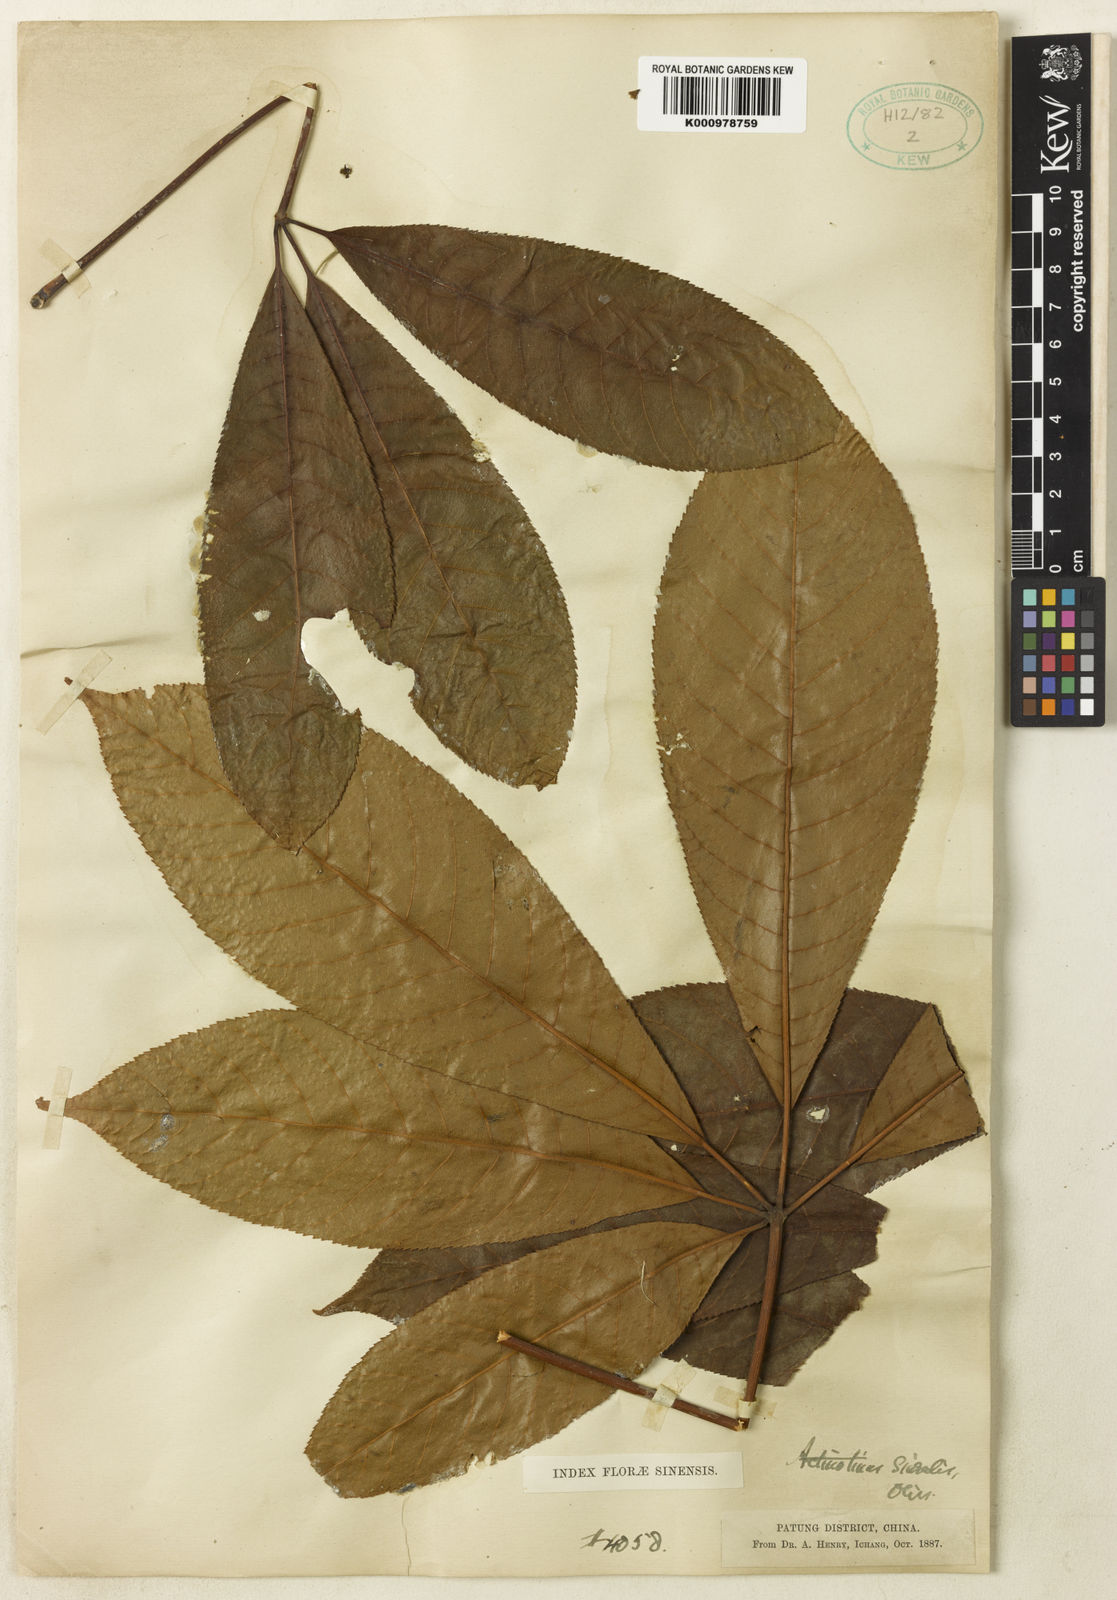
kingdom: Plantae
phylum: Tracheophyta
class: Magnoliopsida
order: Dipsacales
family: Viburnaceae
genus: Viburnum
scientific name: Viburnum plicatum
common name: Japanese snowball
